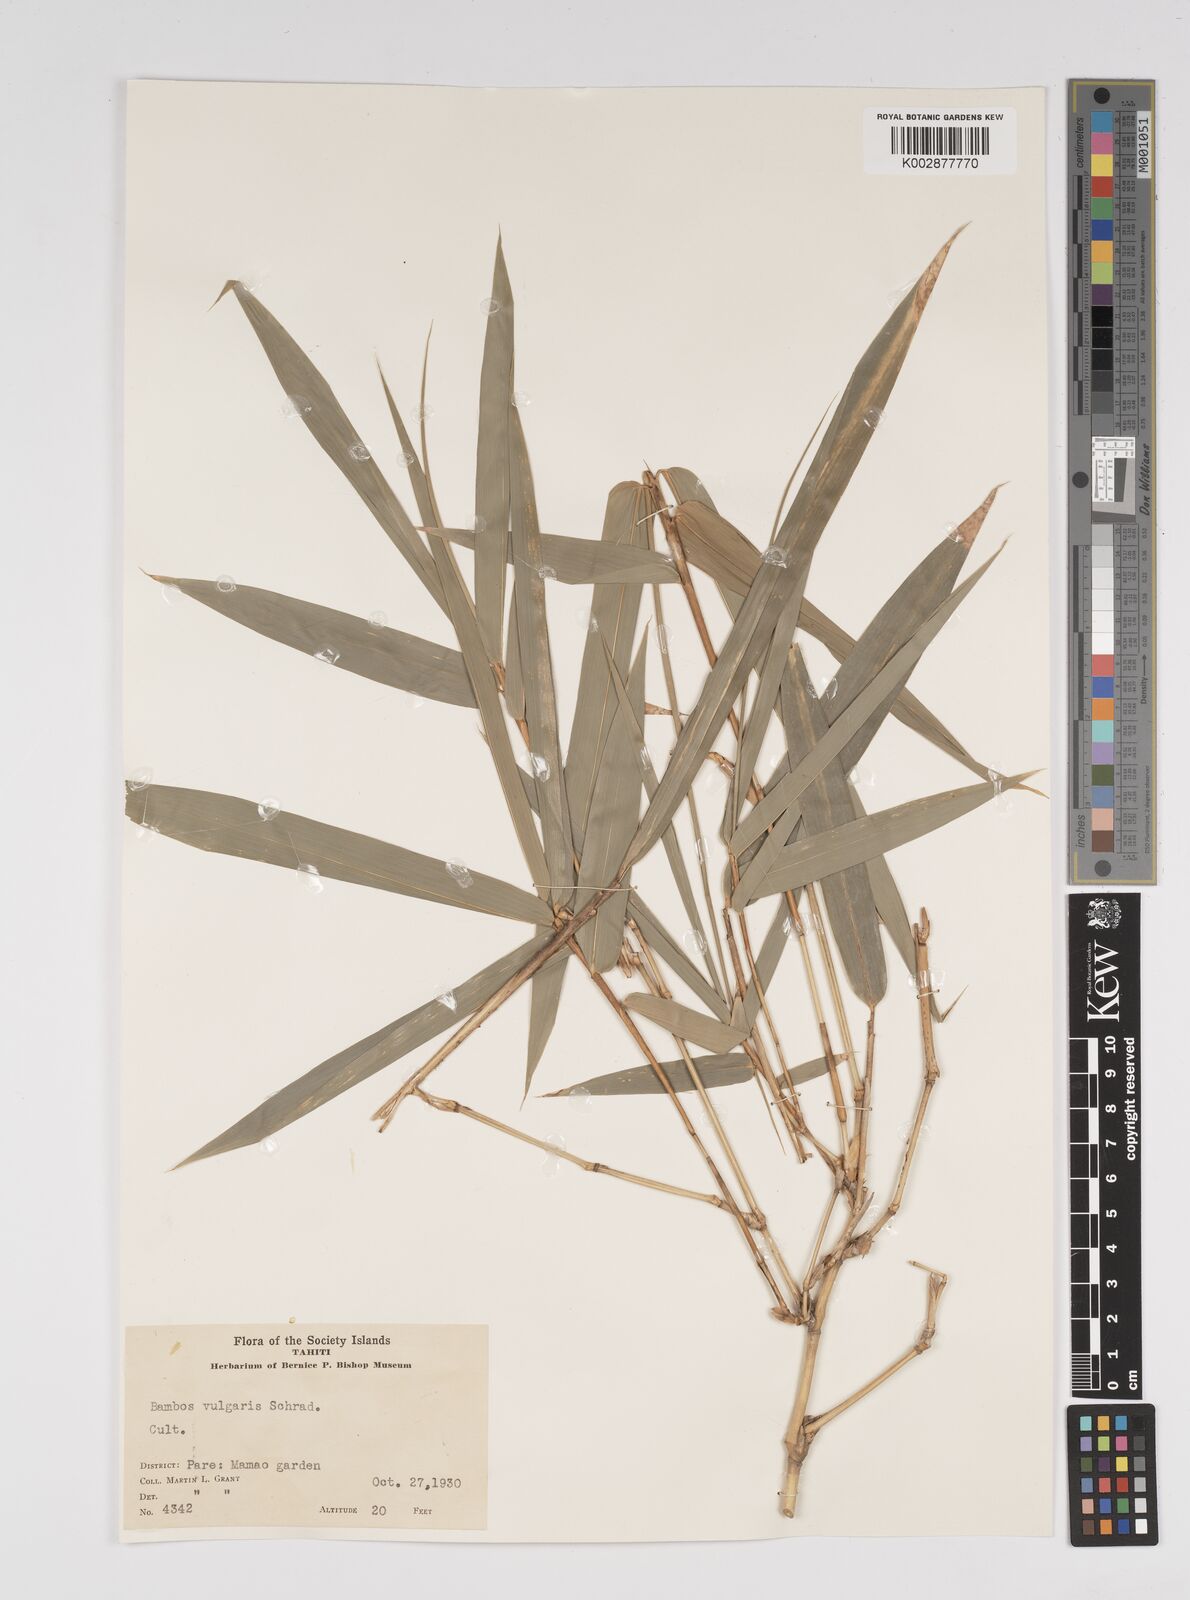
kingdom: Plantae
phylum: Tracheophyta
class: Liliopsida
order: Poales
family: Poaceae
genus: Bambusa
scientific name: Bambusa
